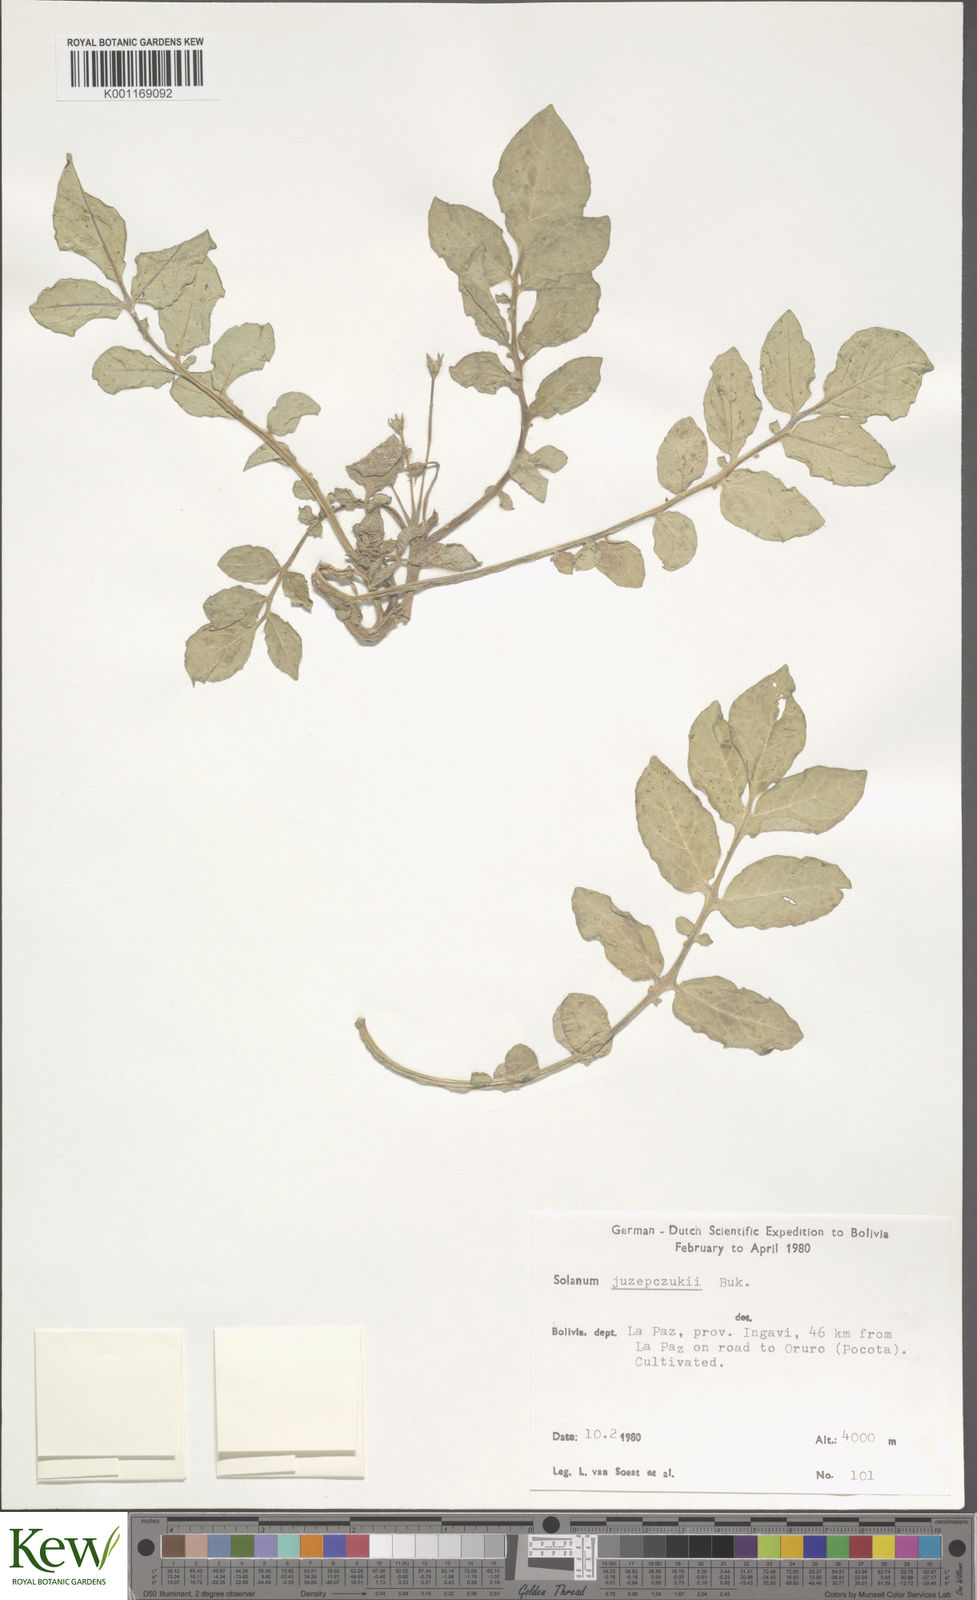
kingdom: Plantae
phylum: Tracheophyta
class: Magnoliopsida
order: Solanales
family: Solanaceae
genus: Solanum
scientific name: Solanum juzepczukii
